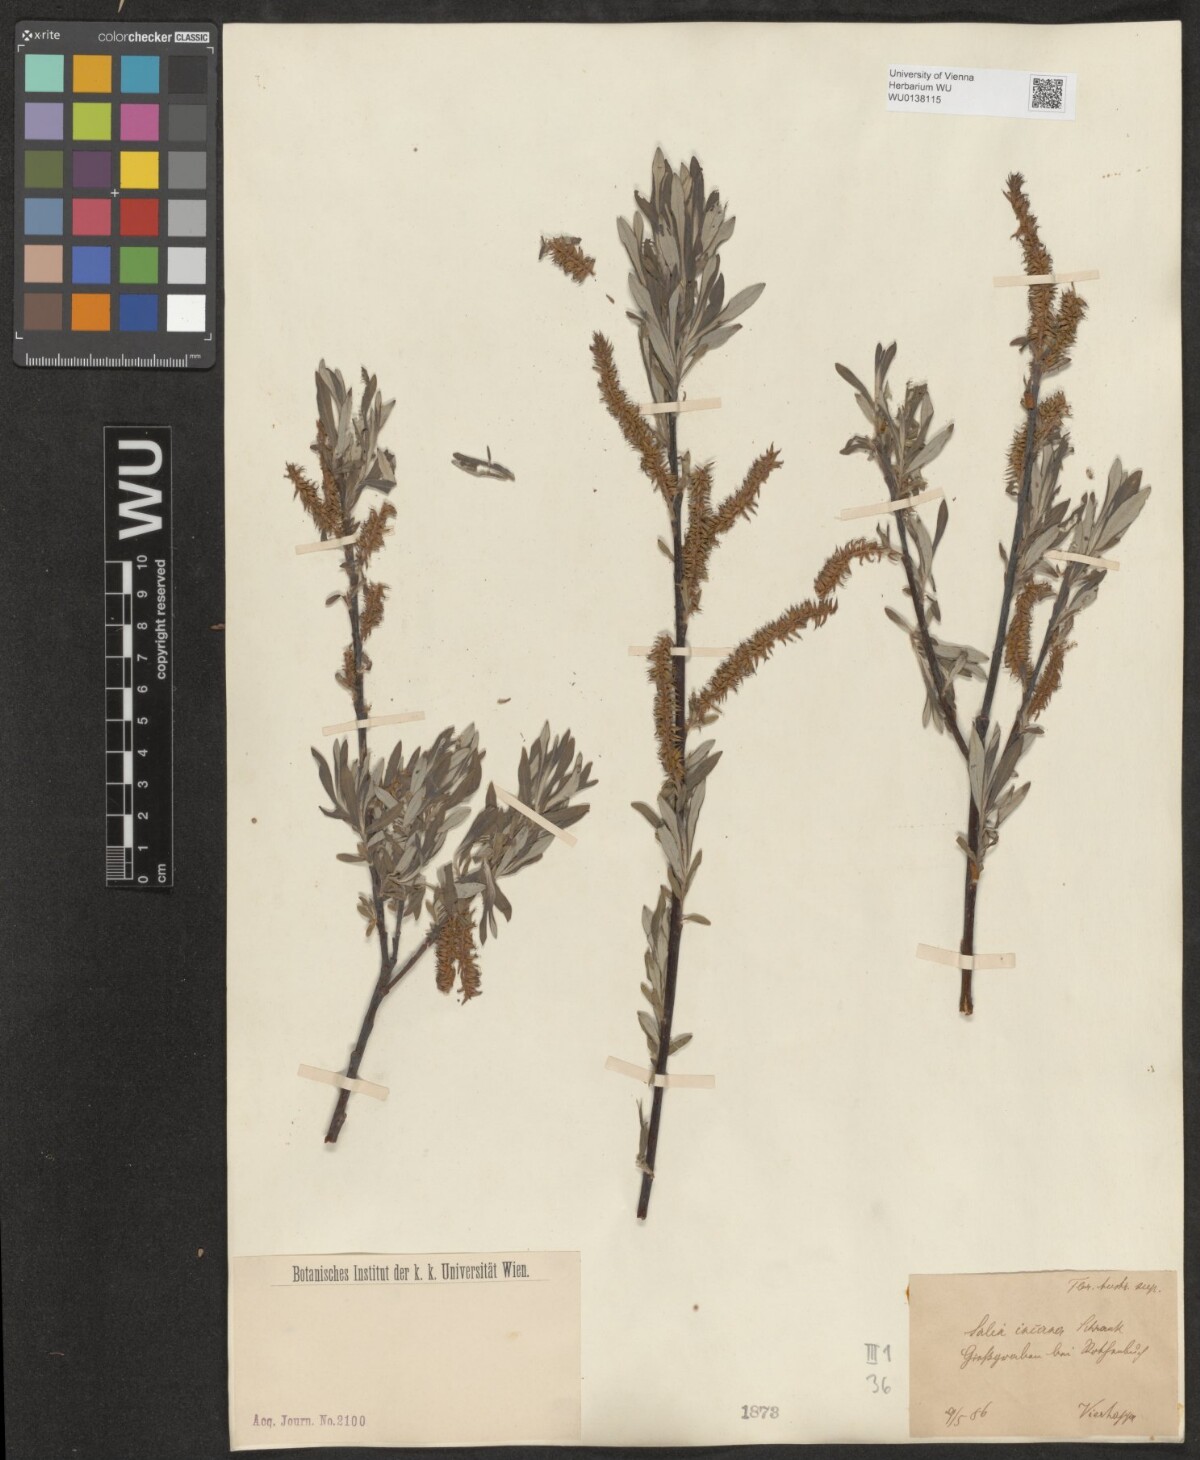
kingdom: Plantae
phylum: Tracheophyta
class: Magnoliopsida
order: Malpighiales
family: Salicaceae
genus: Salix
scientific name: Salix eleagnos
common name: Elaeagnus willow
